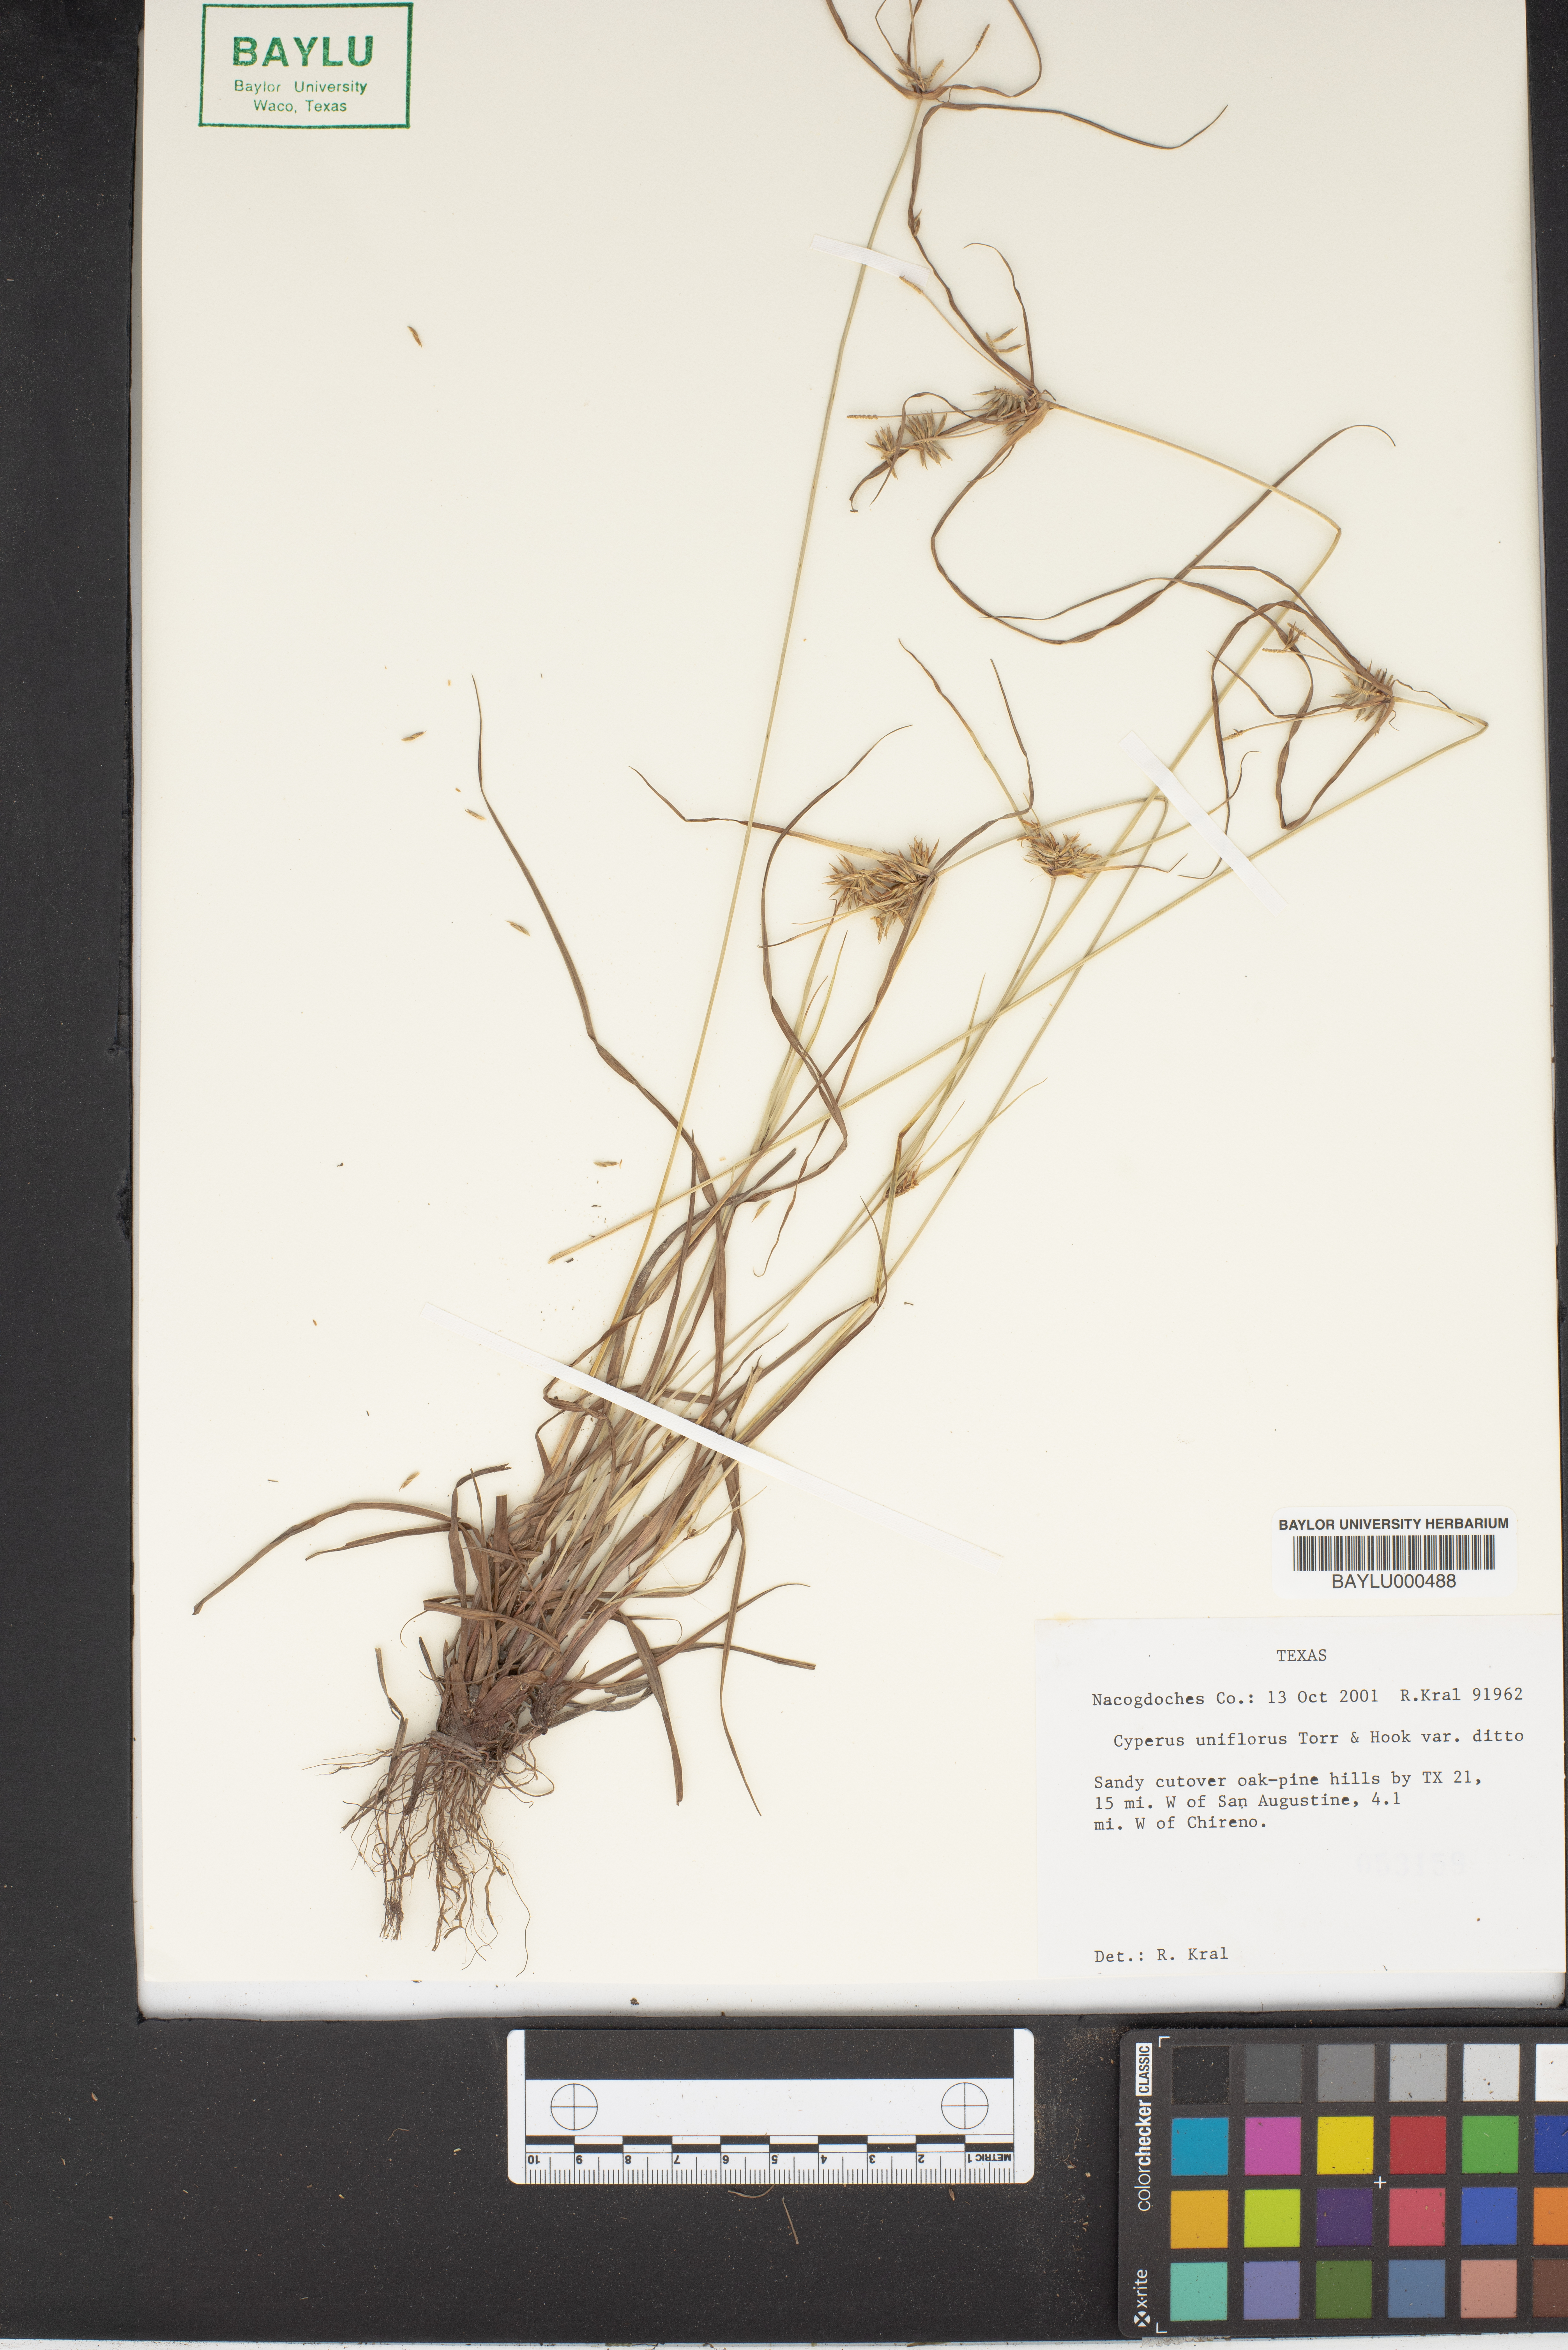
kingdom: Plantae
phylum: Tracheophyta
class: Liliopsida
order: Poales
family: Cyperaceae
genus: Cyperus
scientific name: Cyperus retroflexus
